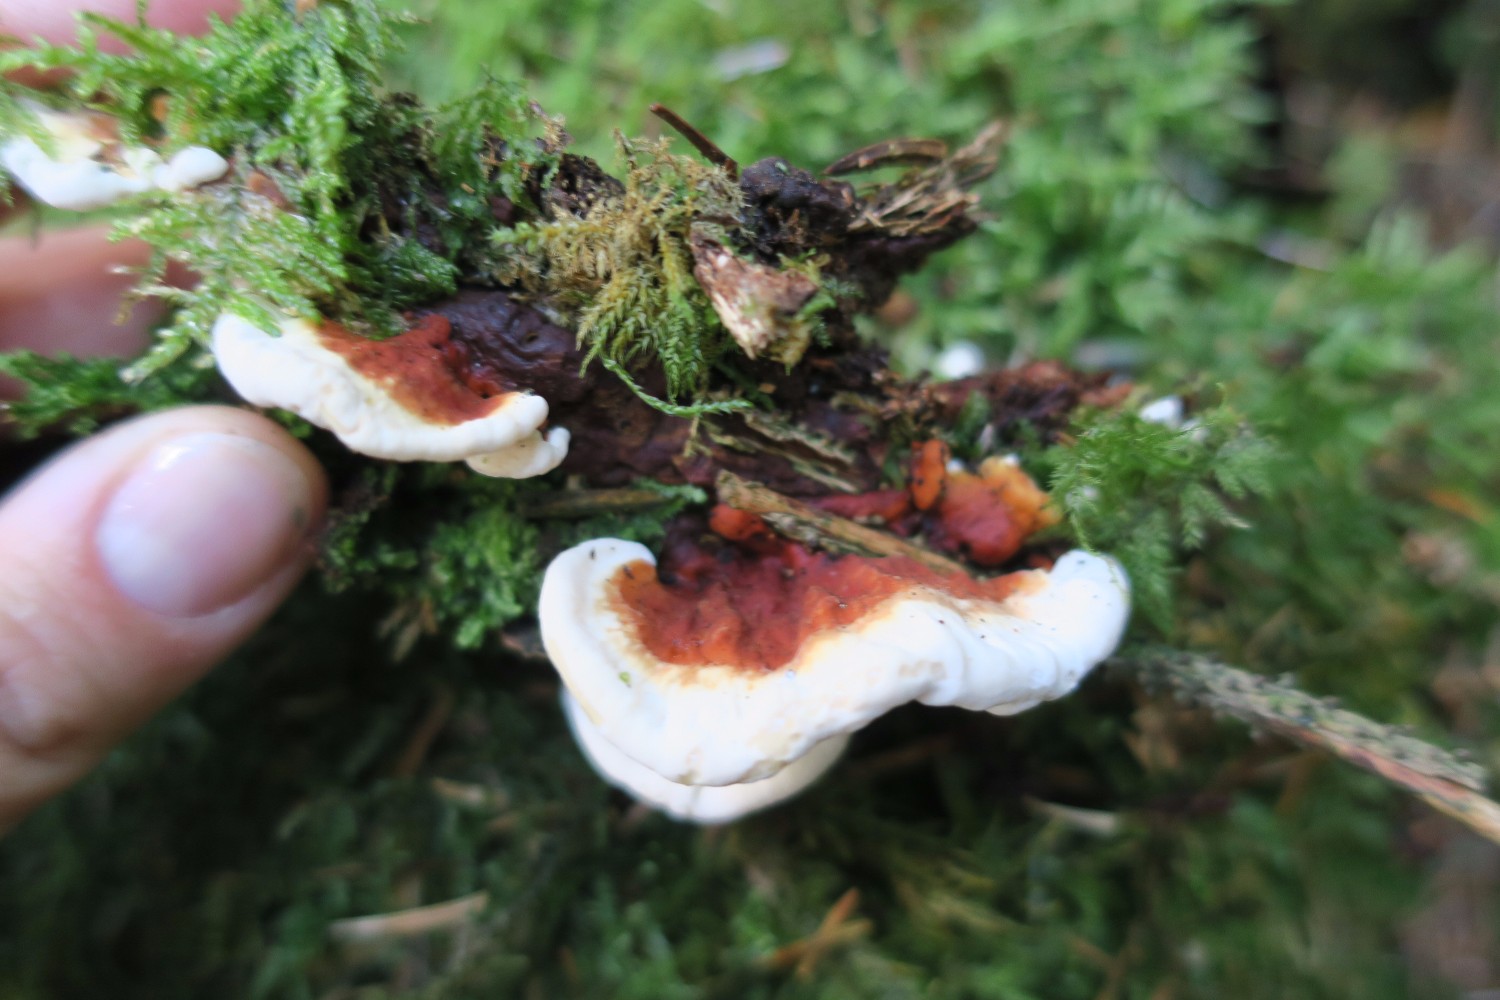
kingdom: Fungi
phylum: Basidiomycota
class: Agaricomycetes
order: Russulales
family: Bondarzewiaceae
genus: Heterobasidion
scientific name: Heterobasidion annosum
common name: almindelig rodfordærver
